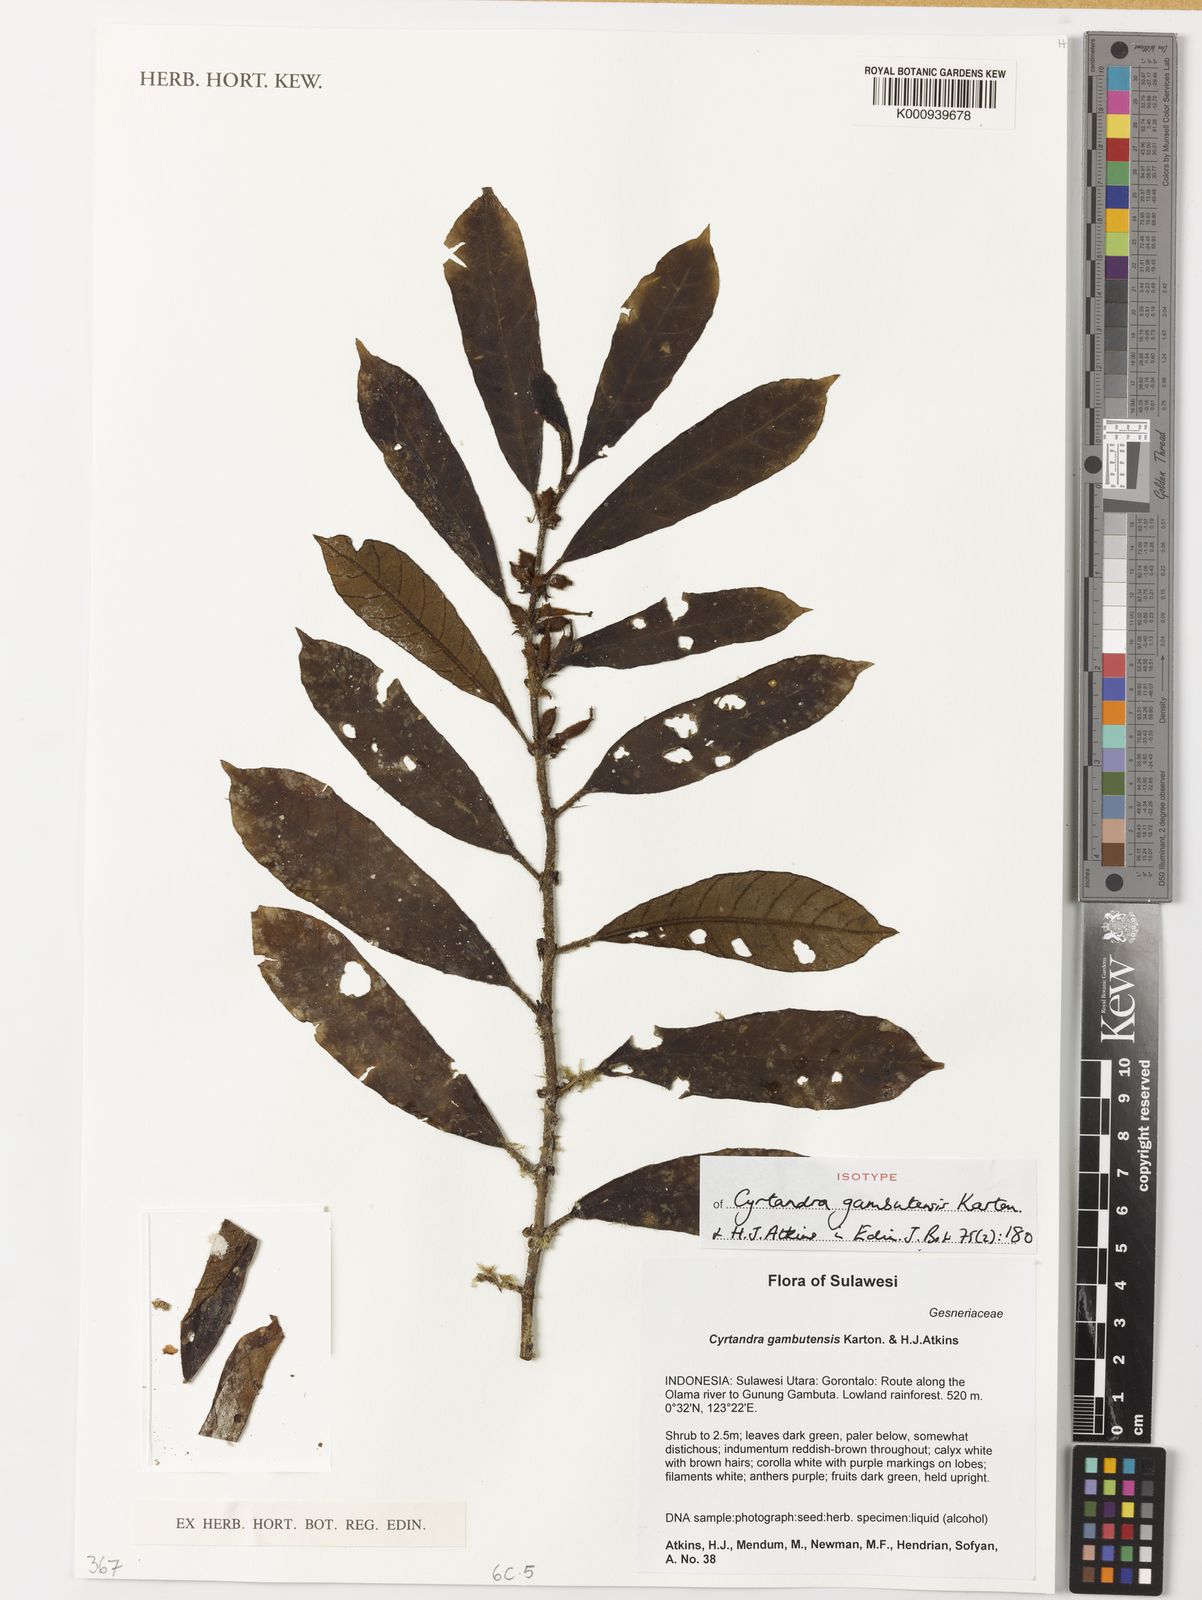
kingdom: Plantae
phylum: Tracheophyta
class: Magnoliopsida
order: Lamiales
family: Gesneriaceae
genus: Cyrtandra
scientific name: Cyrtandra gambutensis
